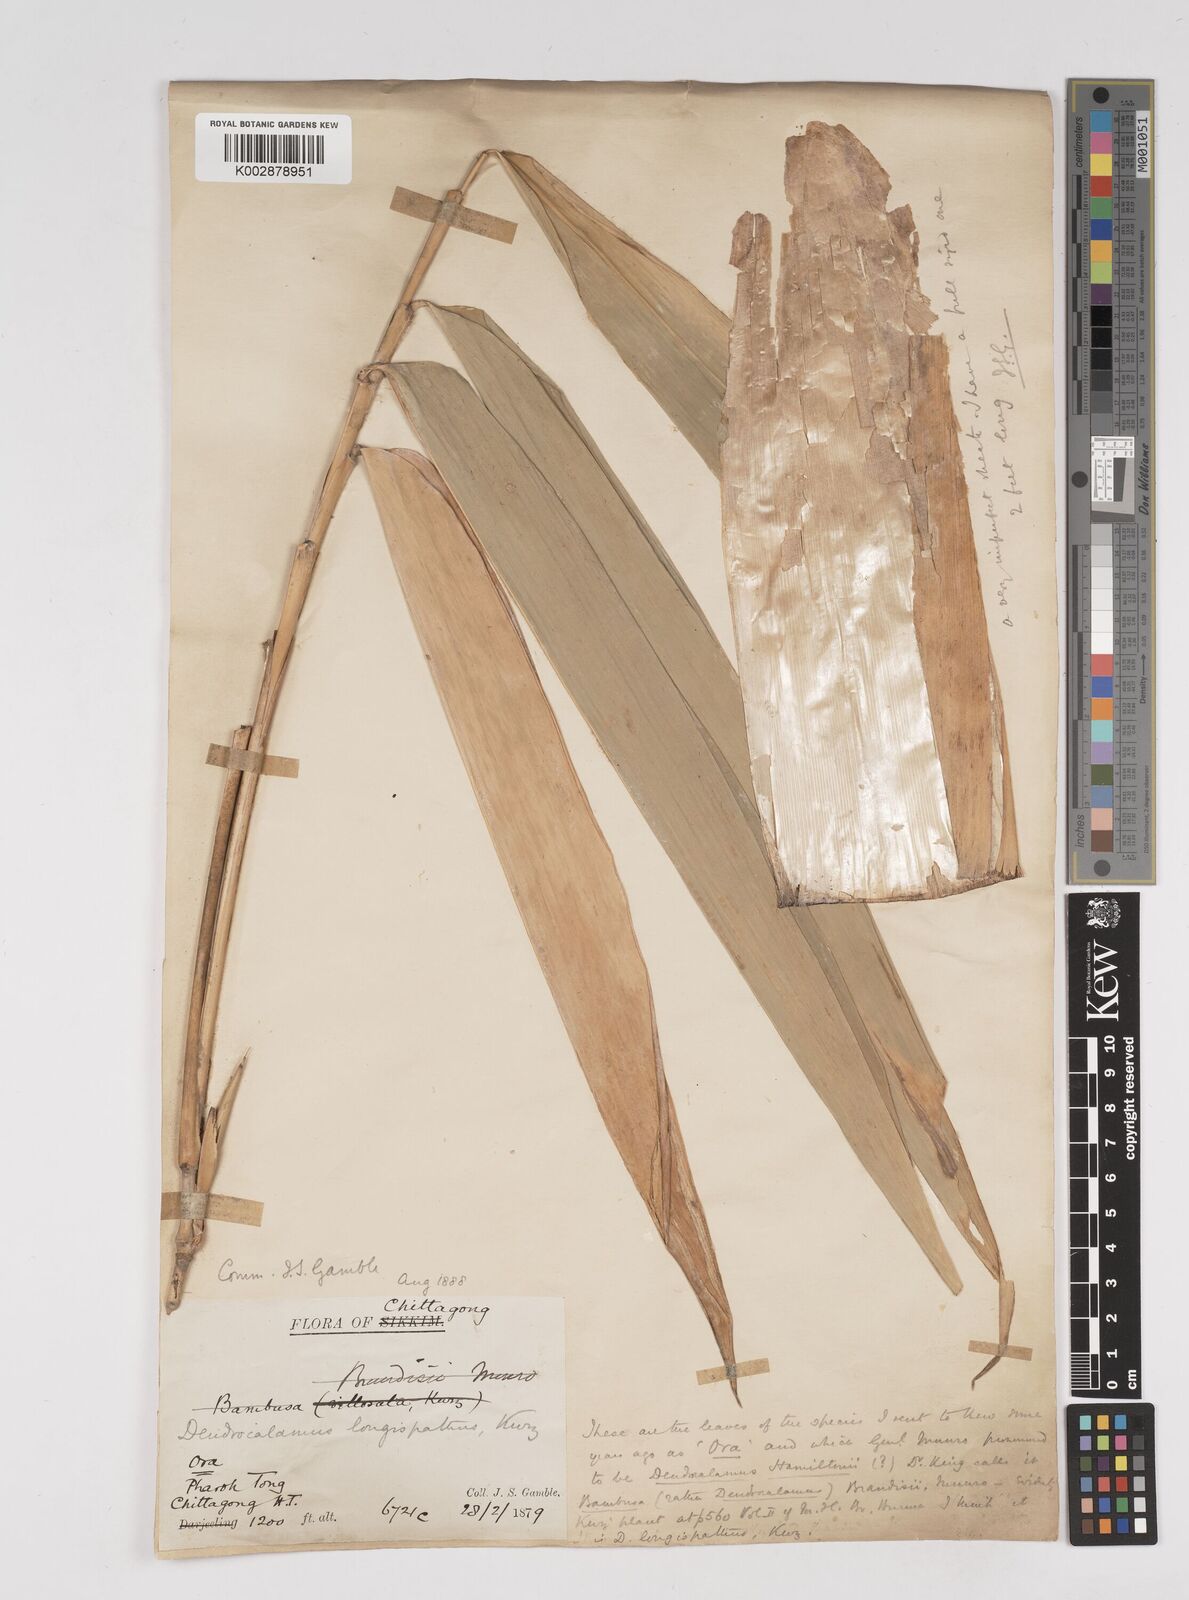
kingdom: Plantae
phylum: Tracheophyta
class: Liliopsida
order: Poales
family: Poaceae
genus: Dendrocalamus
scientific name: Dendrocalamus longispathus
